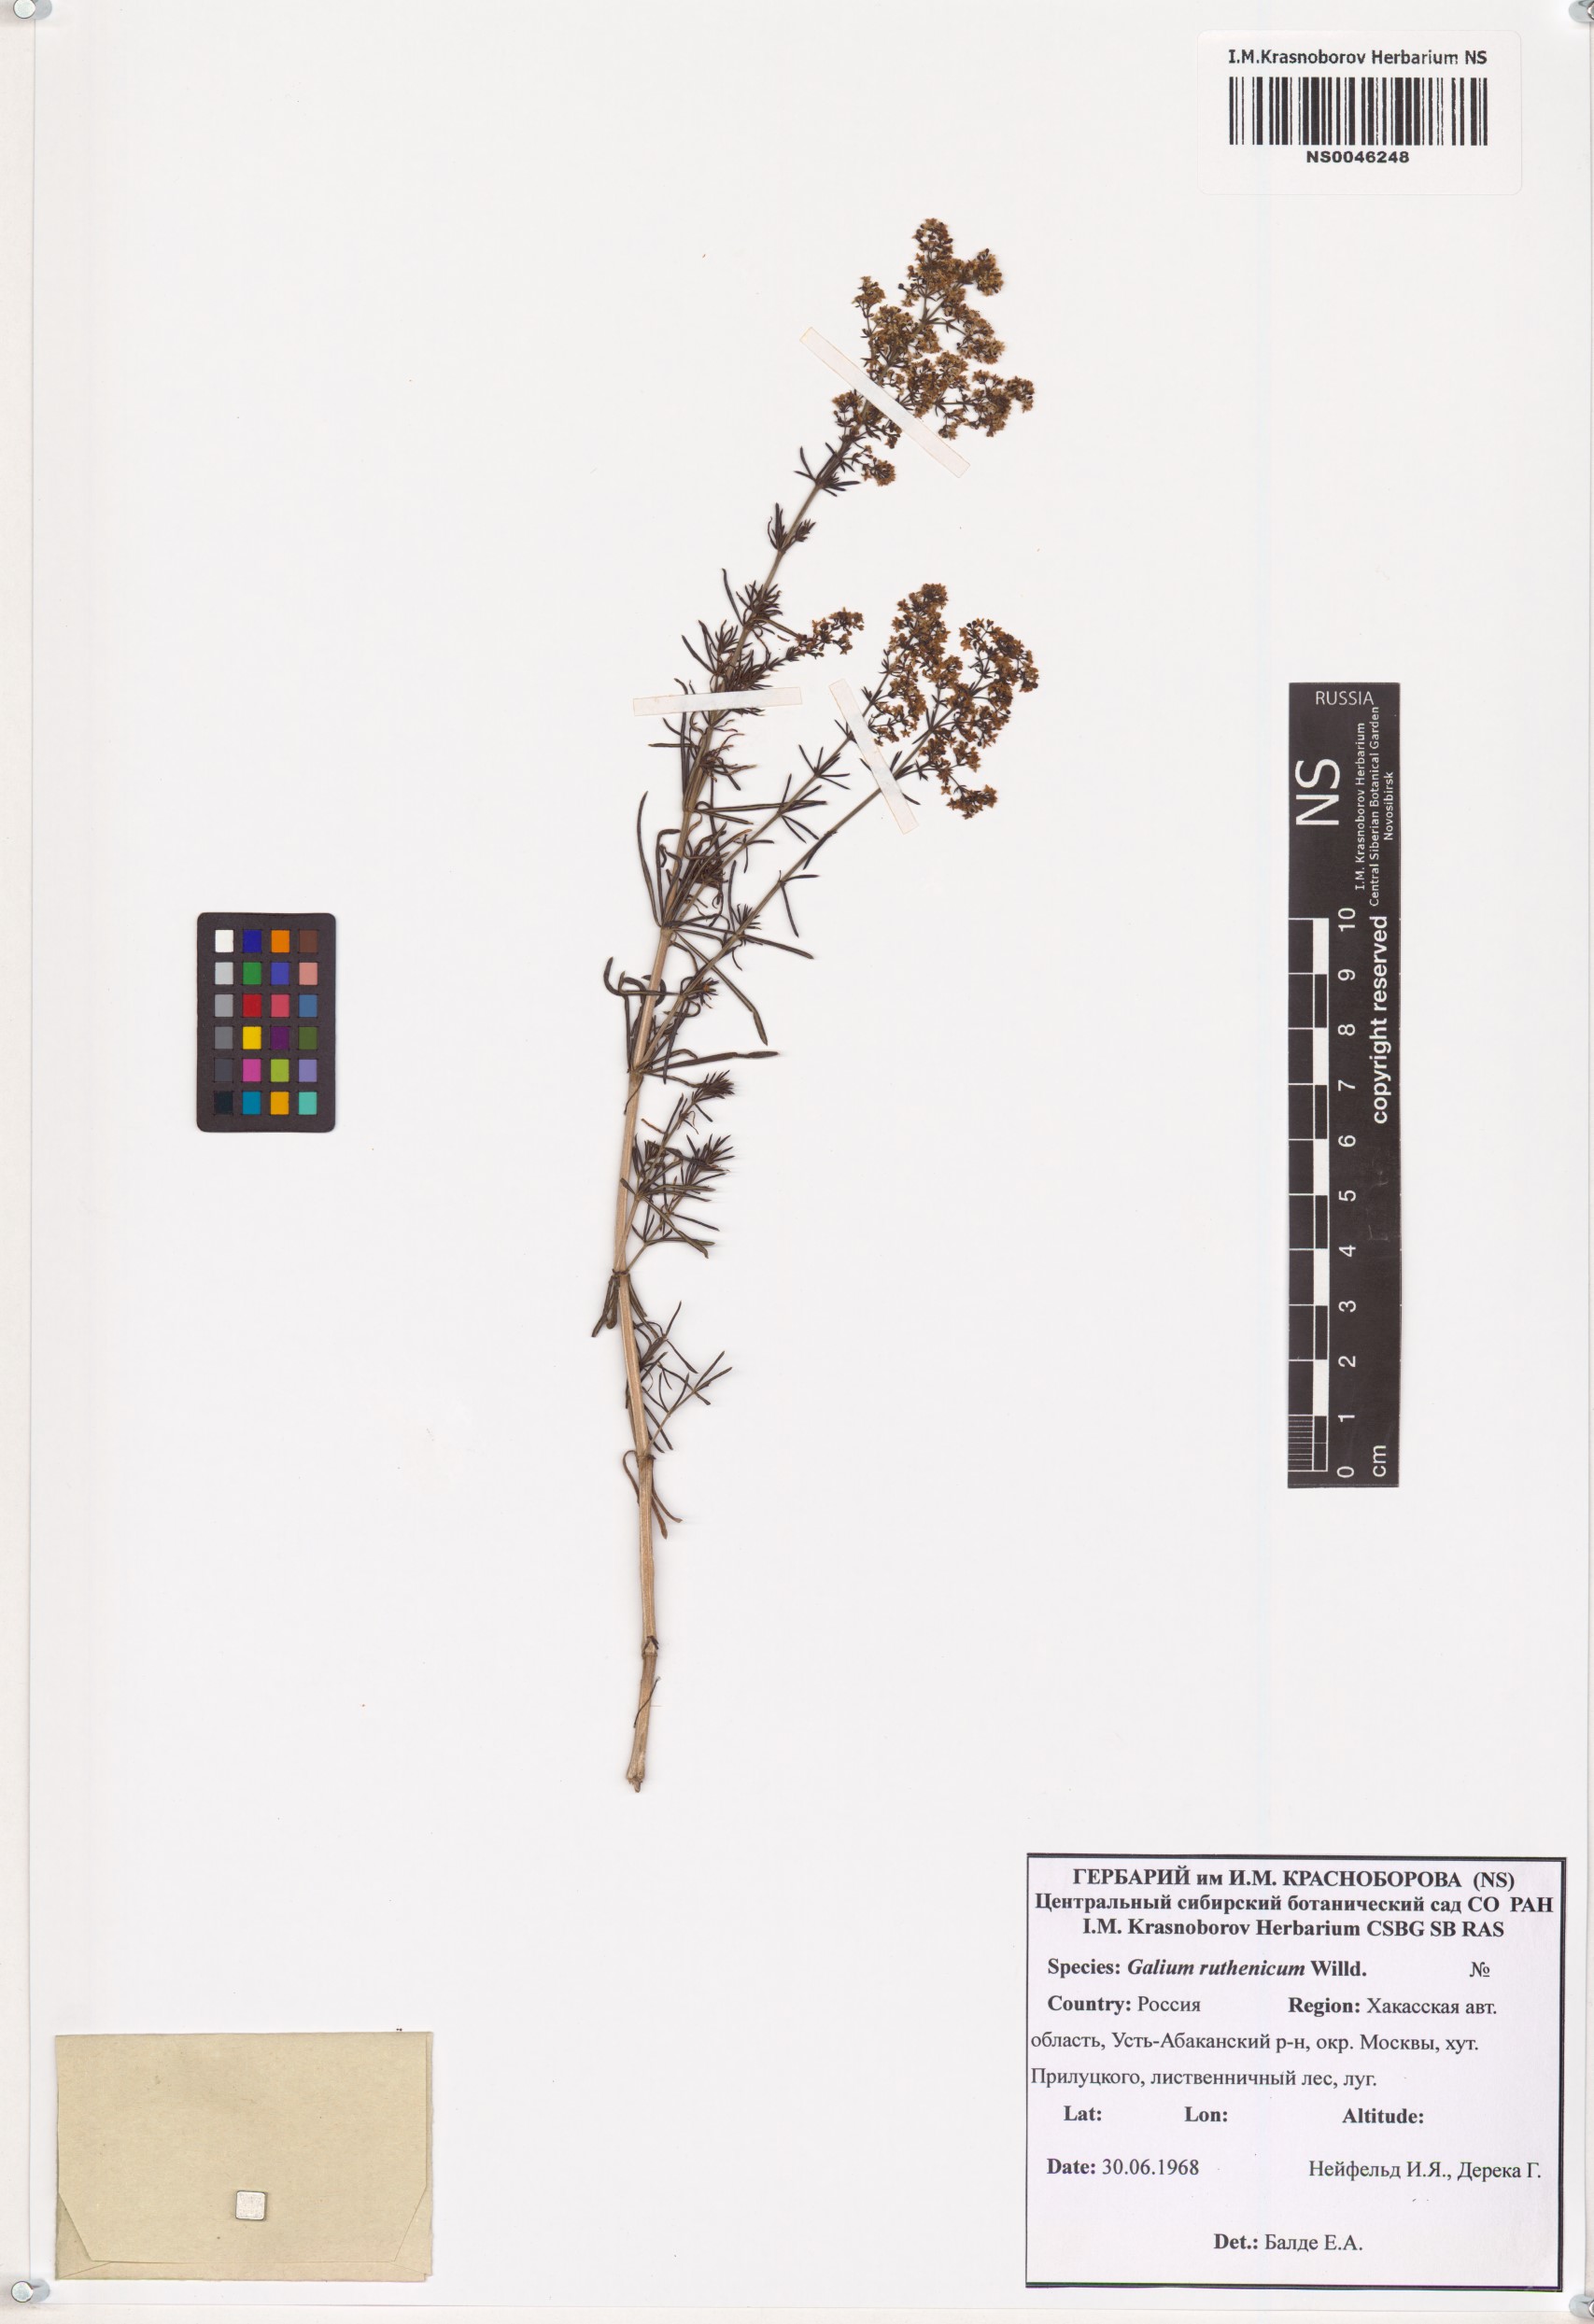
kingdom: Plantae
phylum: Tracheophyta
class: Magnoliopsida
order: Gentianales
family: Rubiaceae
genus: Galium
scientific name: Galium verum
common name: Lady's bedstraw
